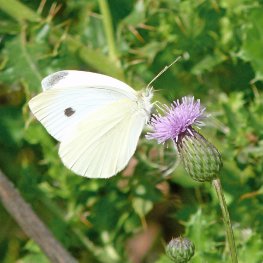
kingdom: Animalia
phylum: Arthropoda
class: Insecta
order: Lepidoptera
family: Pieridae
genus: Pieris
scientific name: Pieris rapae
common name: Cabbage White
